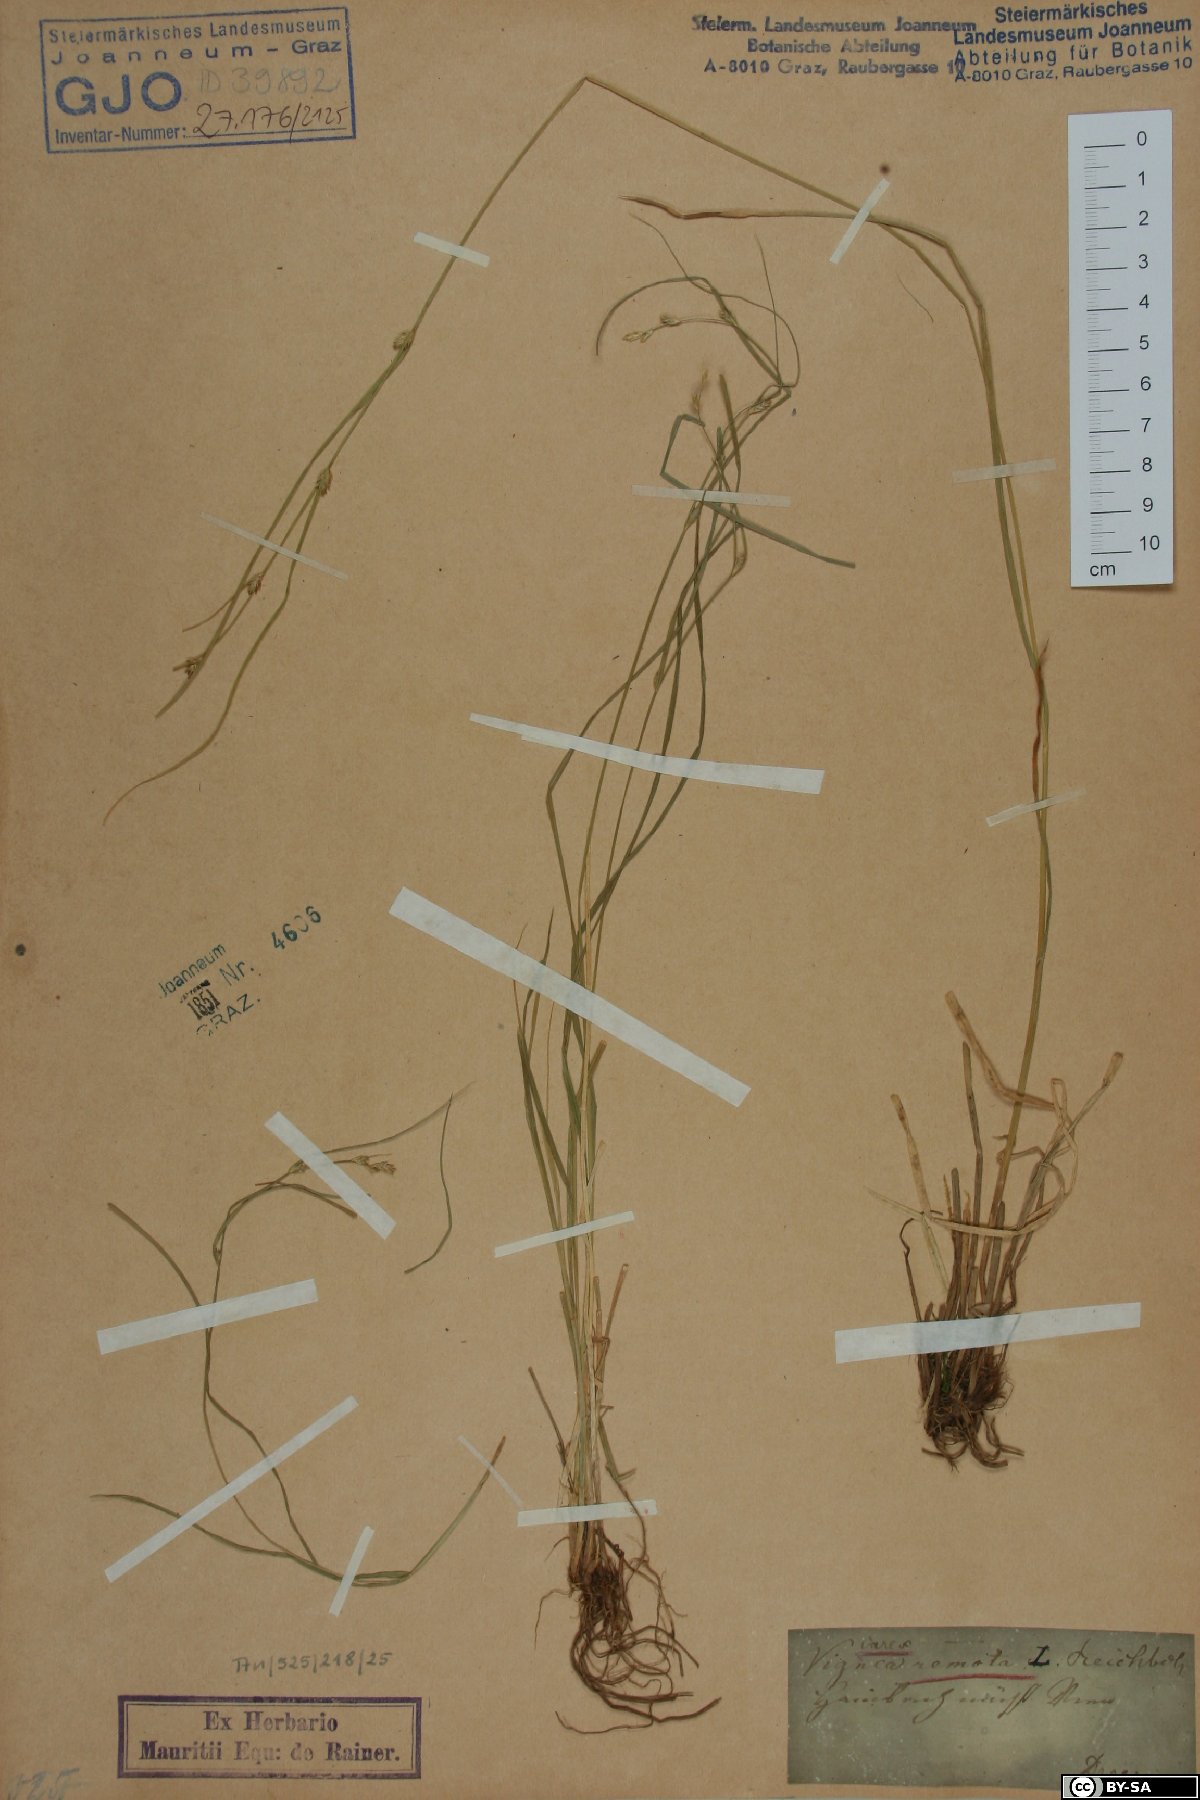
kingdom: Plantae
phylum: Tracheophyta
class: Liliopsida
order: Poales
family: Cyperaceae
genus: Carex
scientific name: Carex remota
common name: Remote sedge
